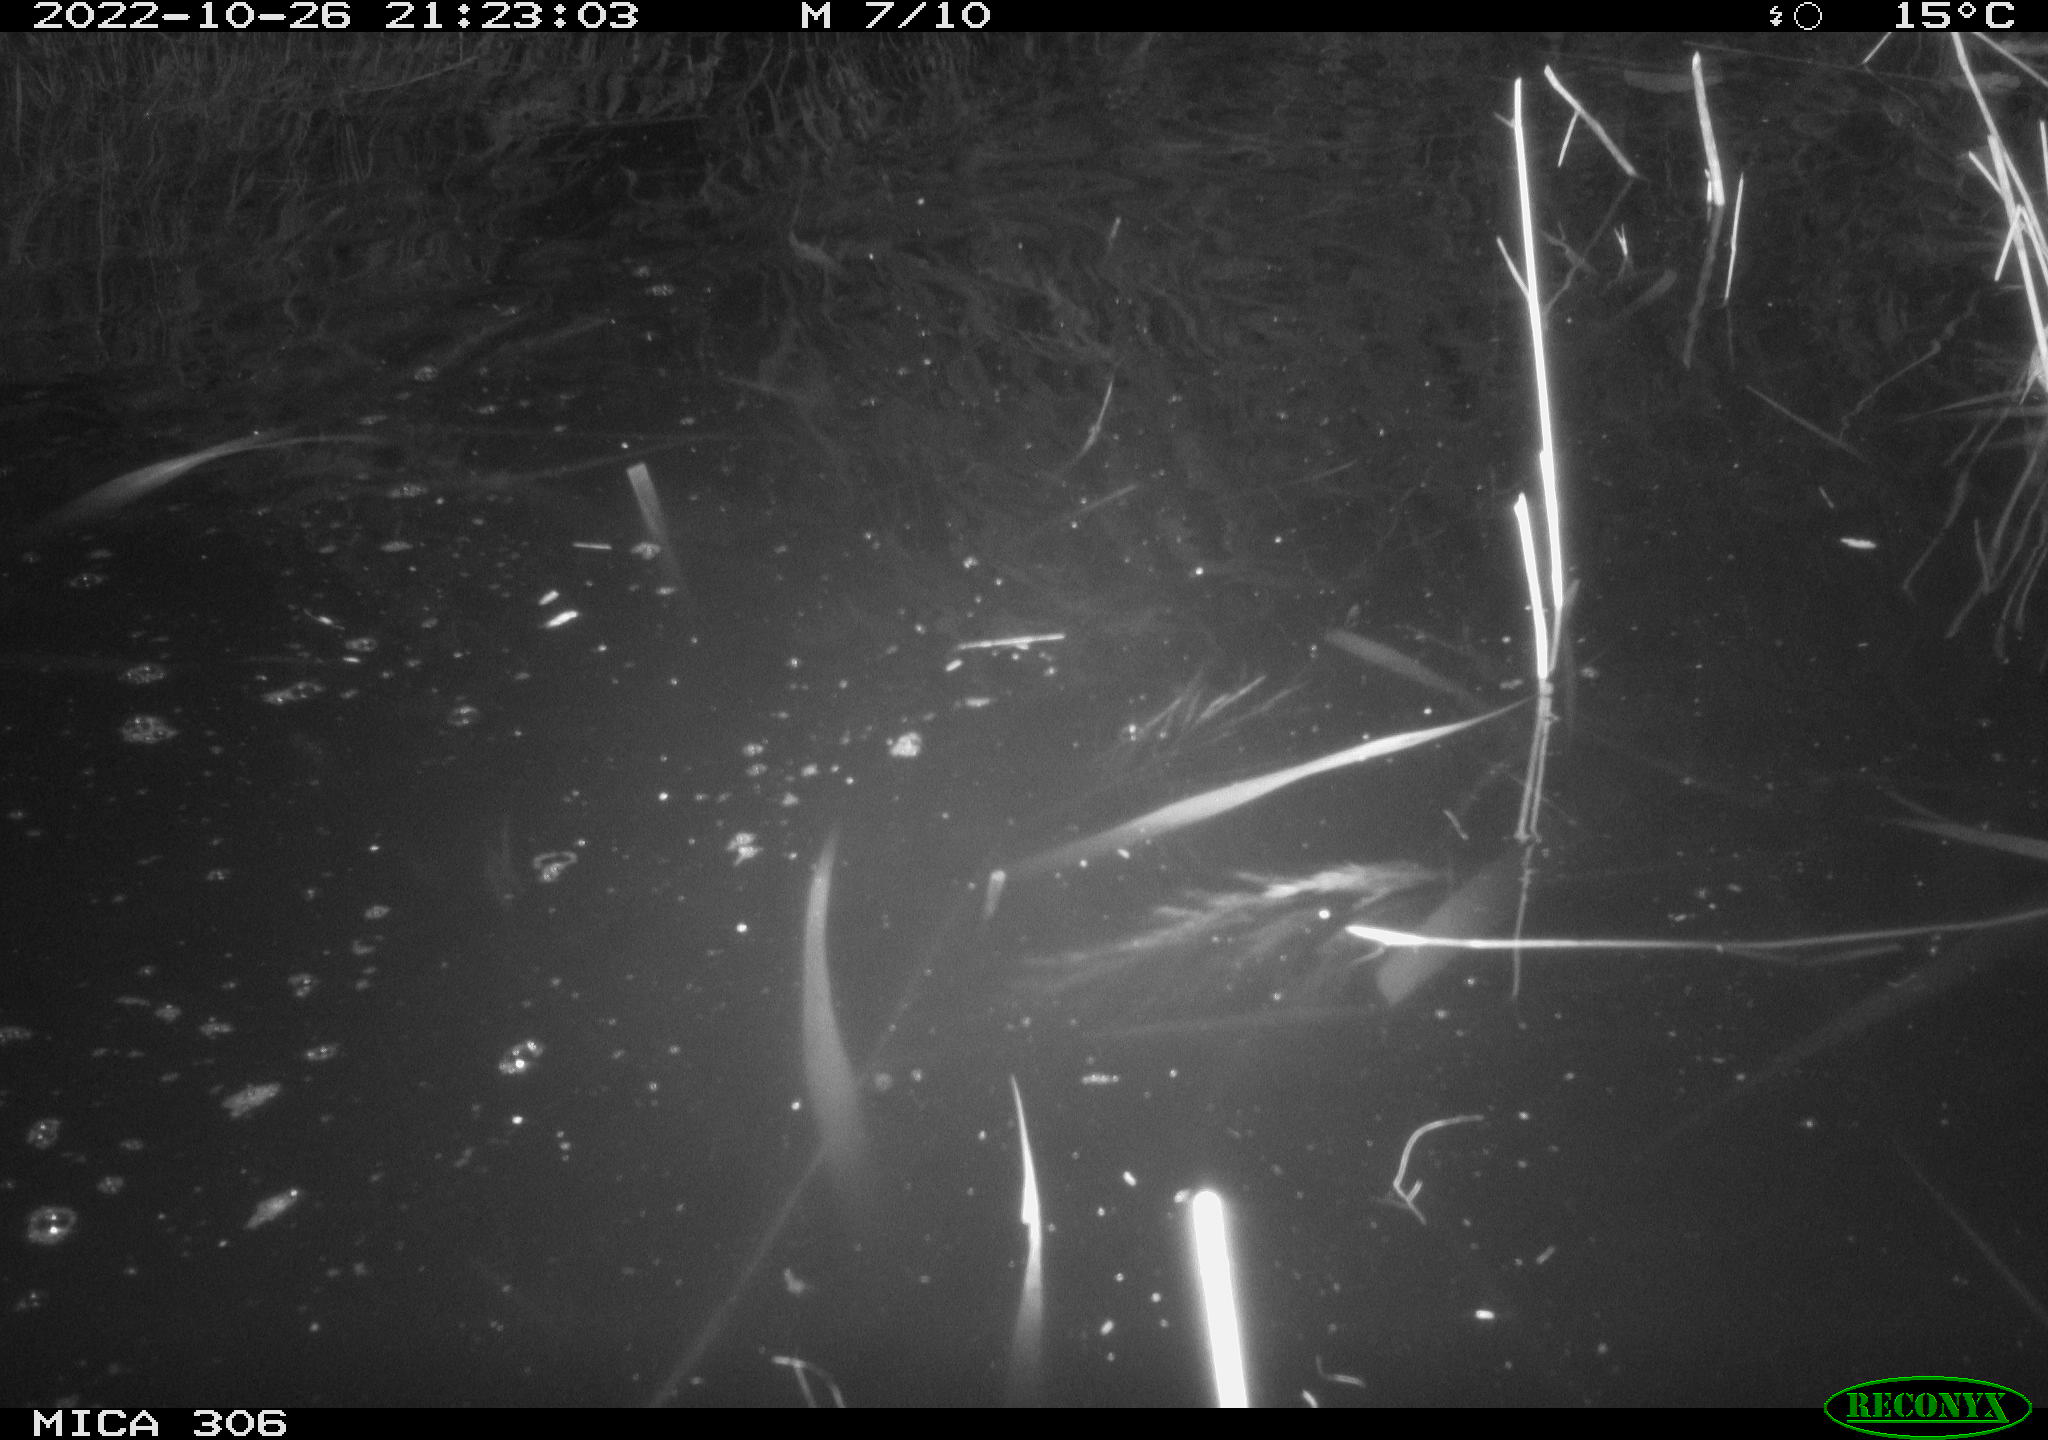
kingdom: Animalia
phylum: Chordata
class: Mammalia
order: Rodentia
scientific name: Rodentia
